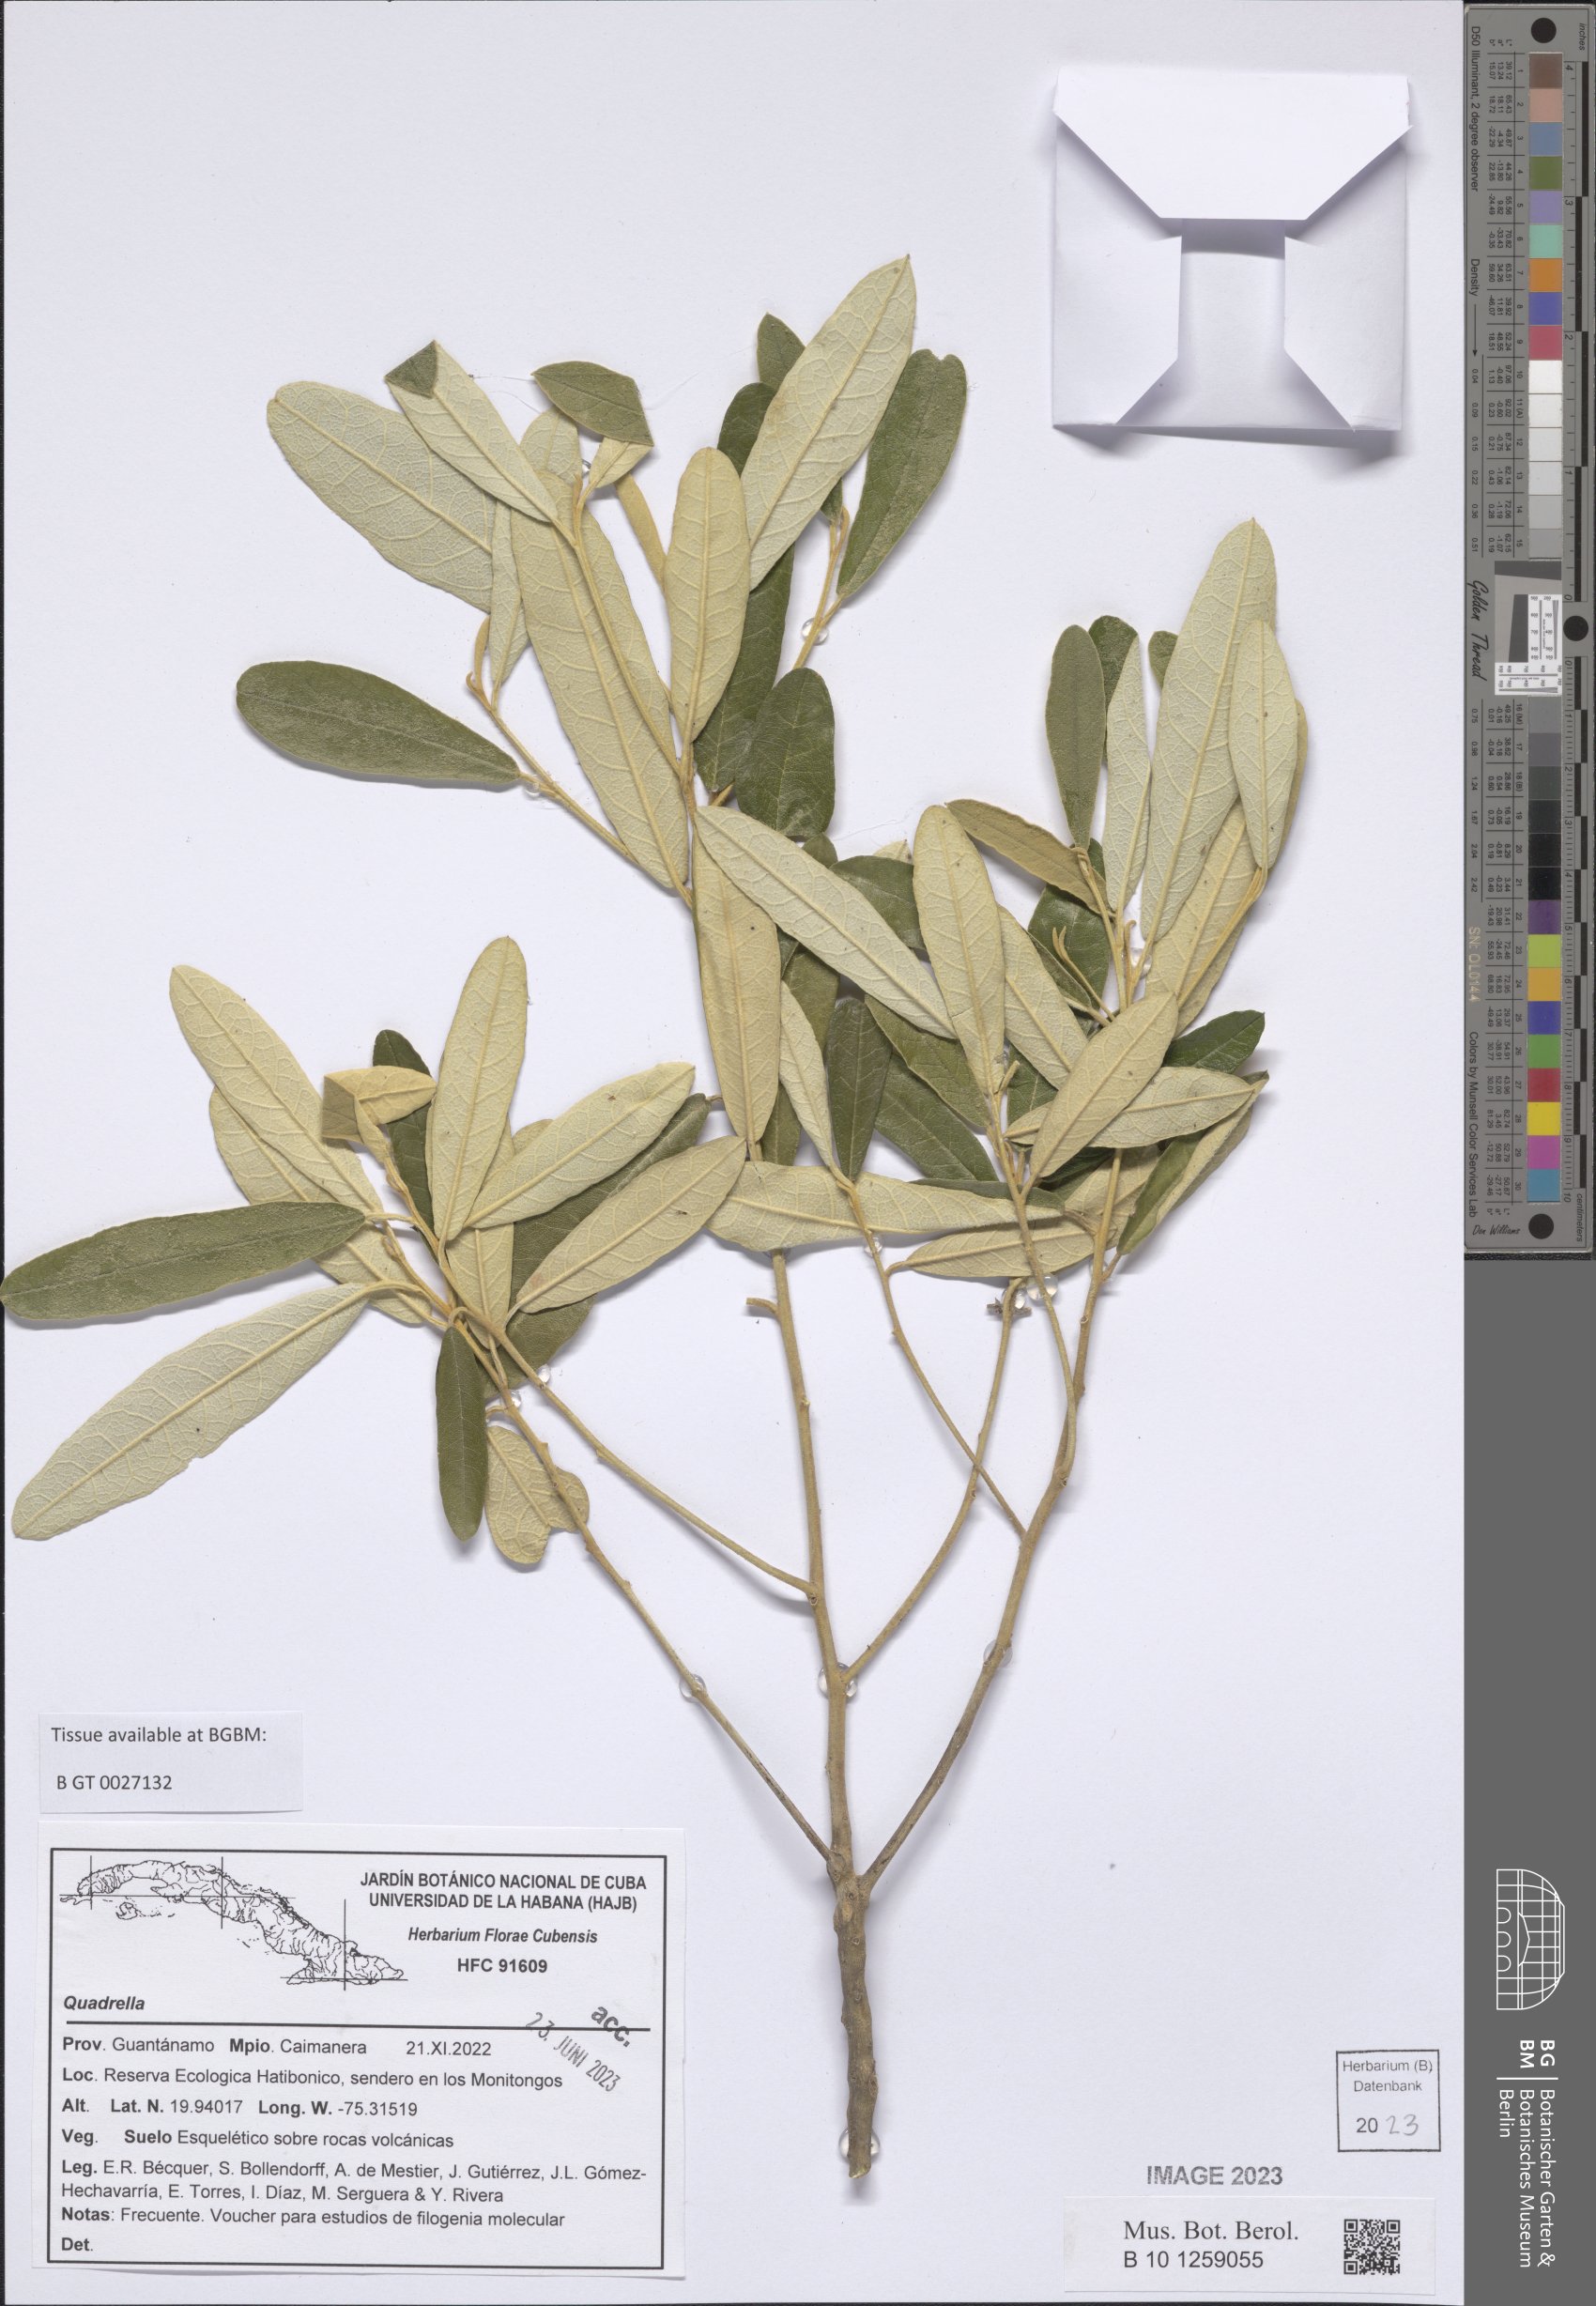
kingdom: Plantae
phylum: Tracheophyta
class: Magnoliopsida
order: Brassicales
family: Capparaceae
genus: Quadrella
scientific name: Quadrella
